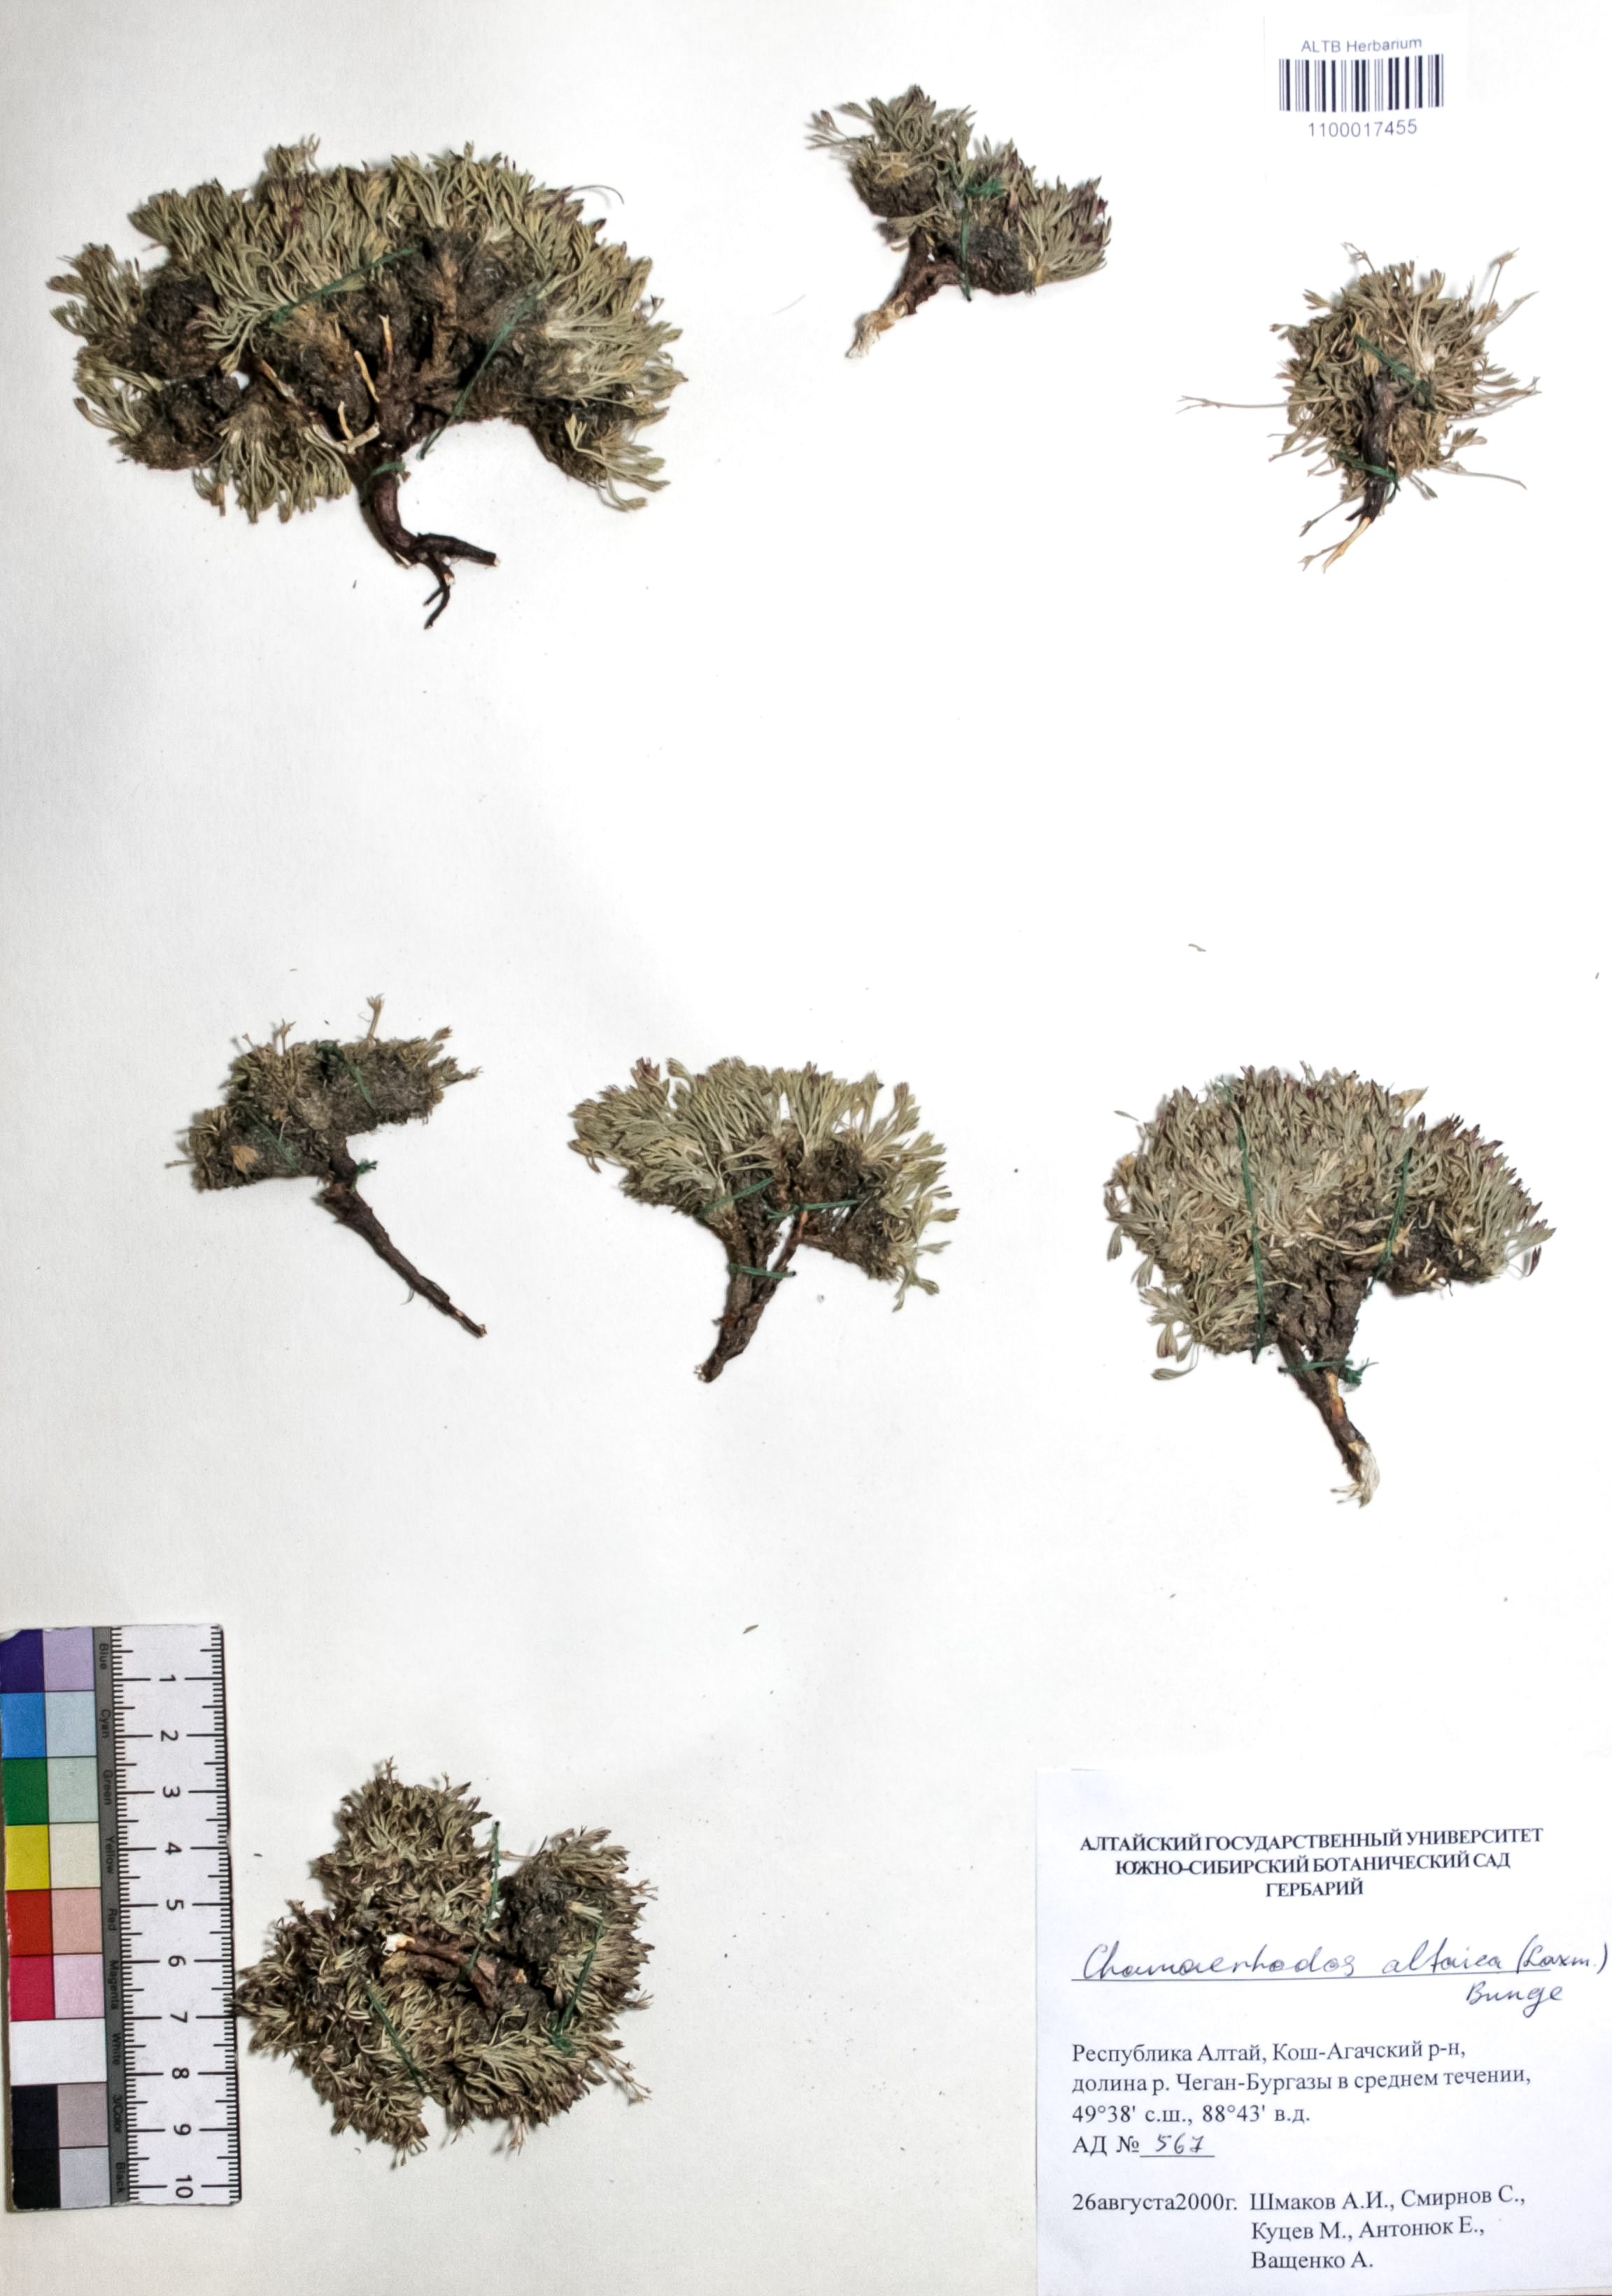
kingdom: Plantae
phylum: Tracheophyta
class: Magnoliopsida
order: Rosales
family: Rosaceae
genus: Chamaerhodos
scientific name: Chamaerhodos altaica
